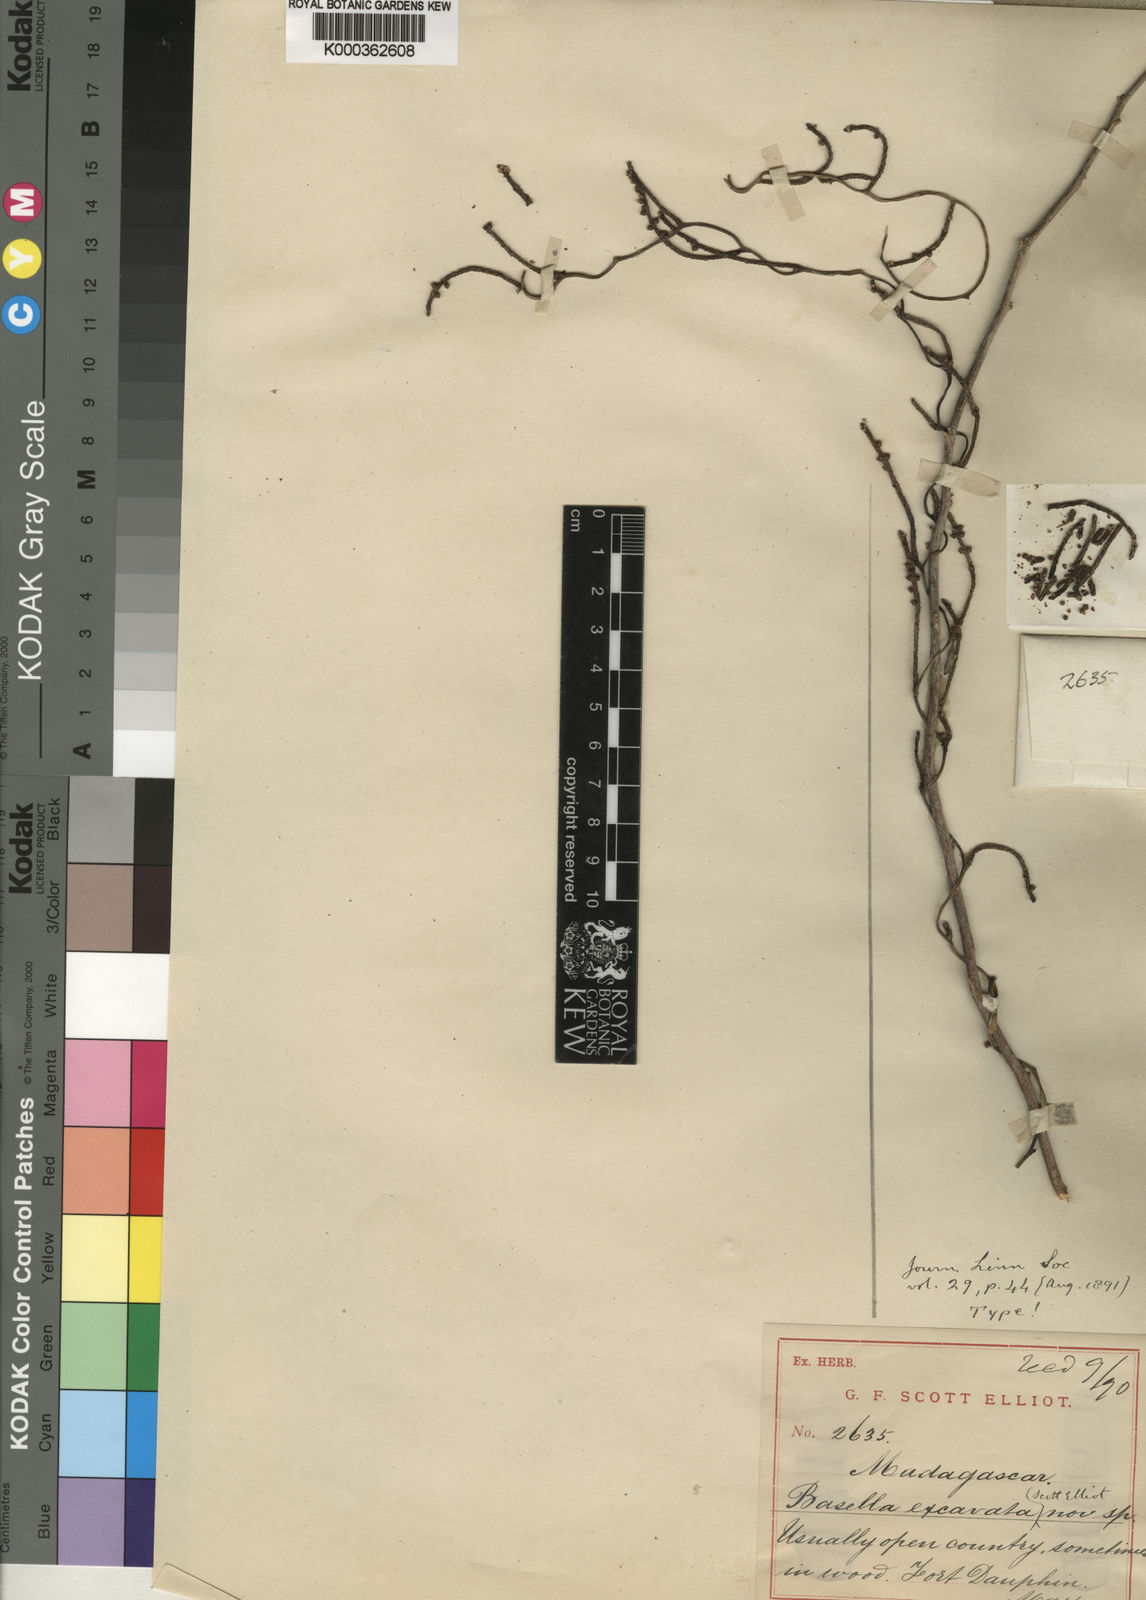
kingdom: Plantae
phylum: Tracheophyta
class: Magnoliopsida
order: Caryophyllales
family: Basellaceae
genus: Basella
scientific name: Basella excavata
